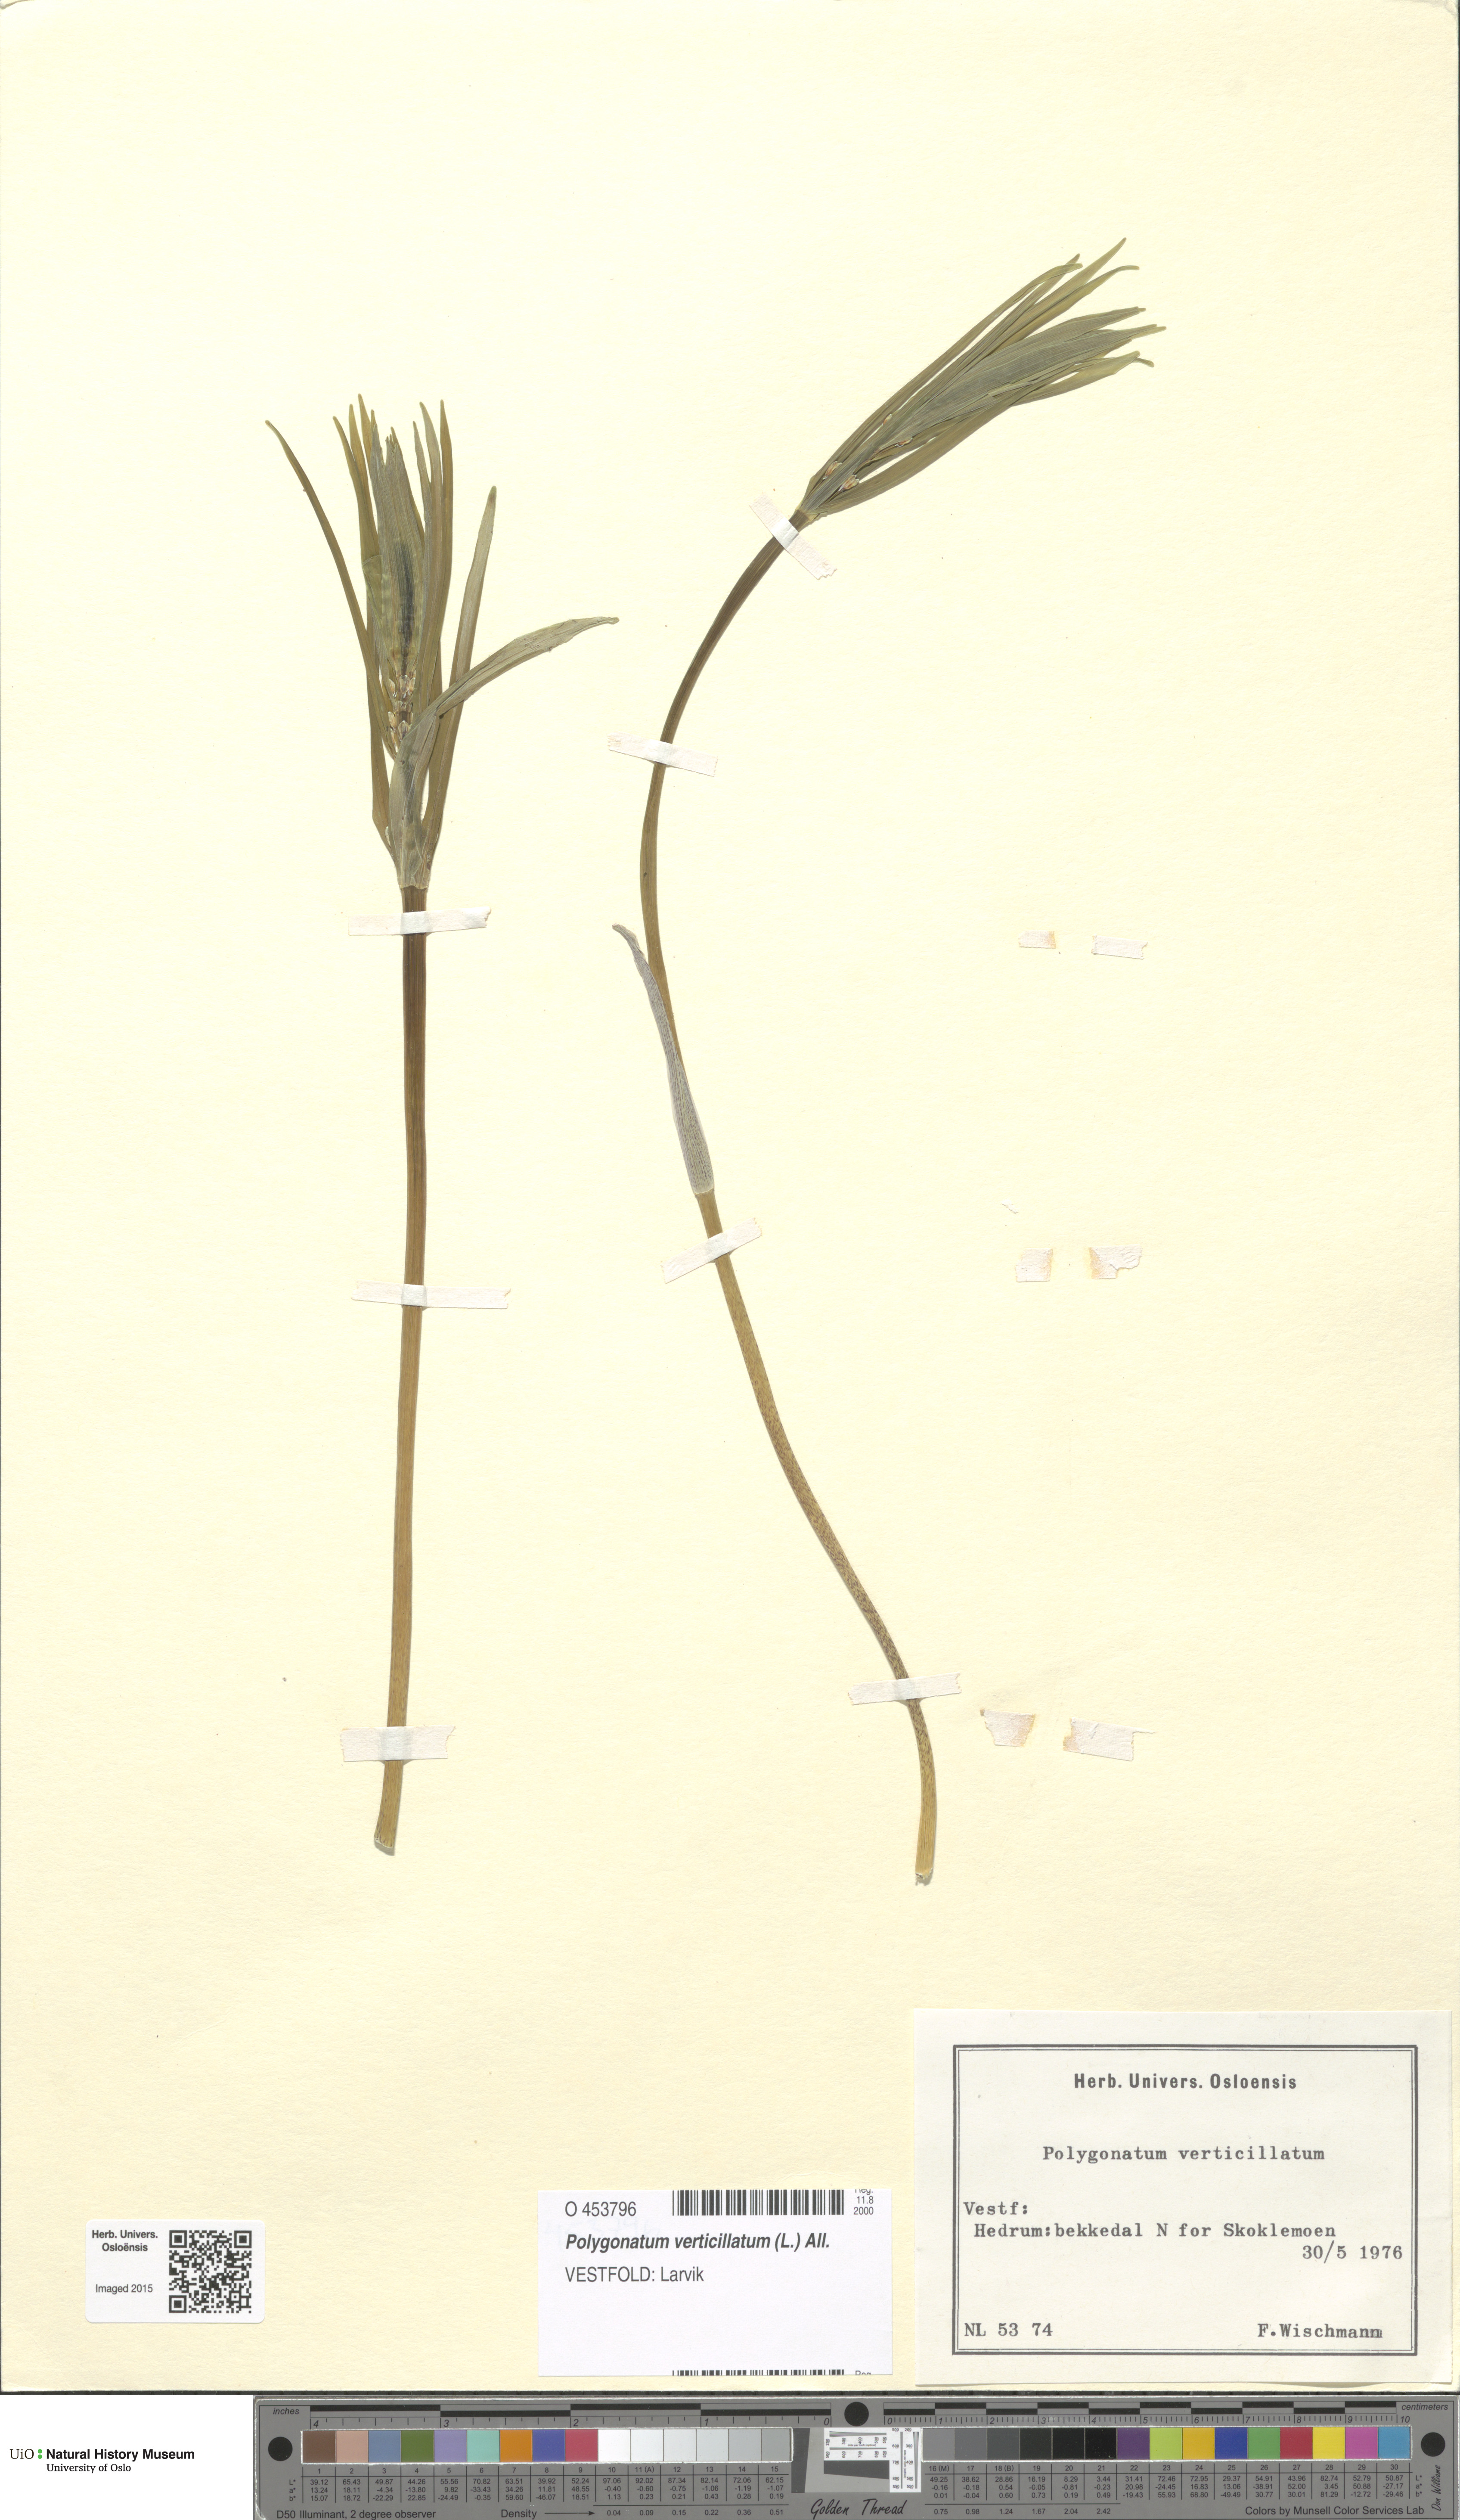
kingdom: Plantae
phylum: Tracheophyta
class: Liliopsida
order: Asparagales
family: Asparagaceae
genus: Polygonatum
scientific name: Polygonatum verticillatum
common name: Whorled solomon's-seal
